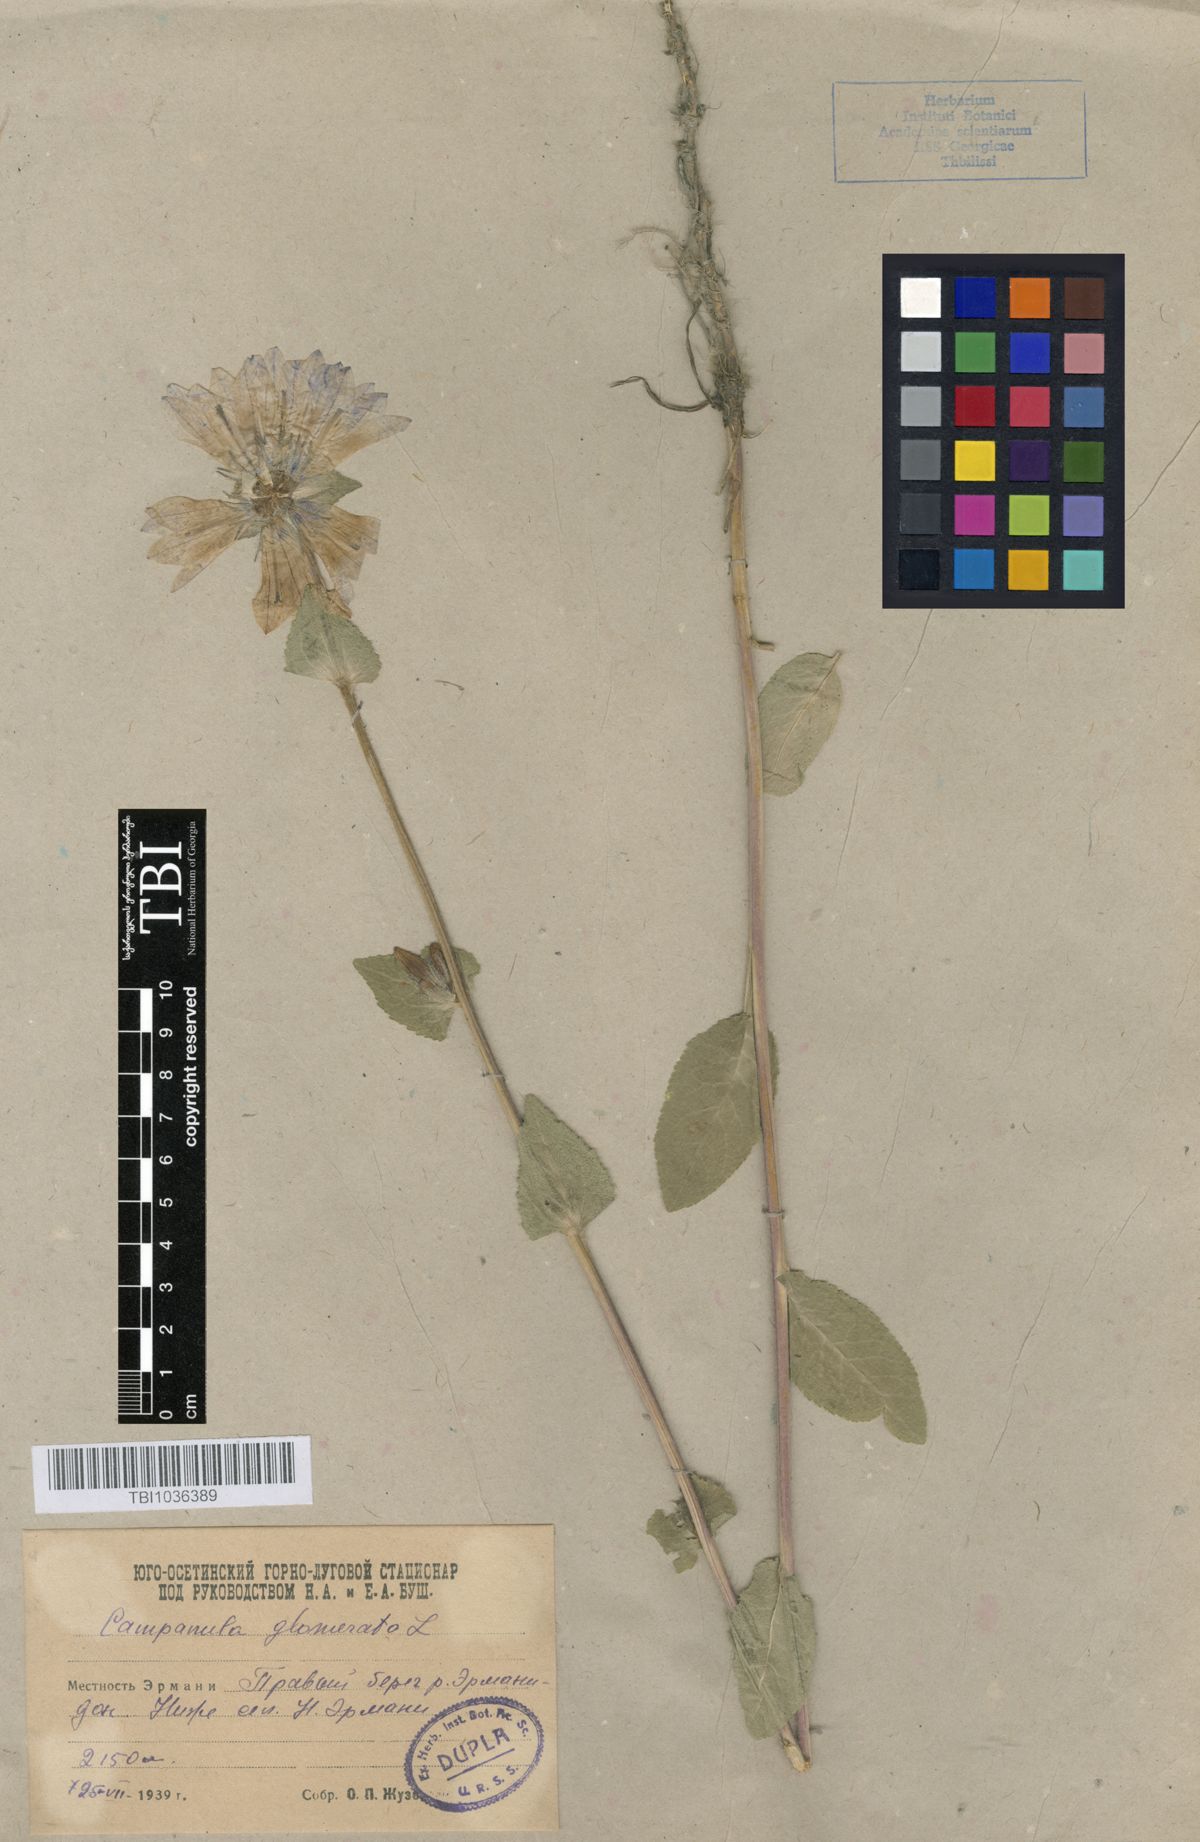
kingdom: Plantae
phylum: Tracheophyta
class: Magnoliopsida
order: Asterales
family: Campanulaceae
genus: Campanula
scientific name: Campanula glomerata
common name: Clustered bellflower
